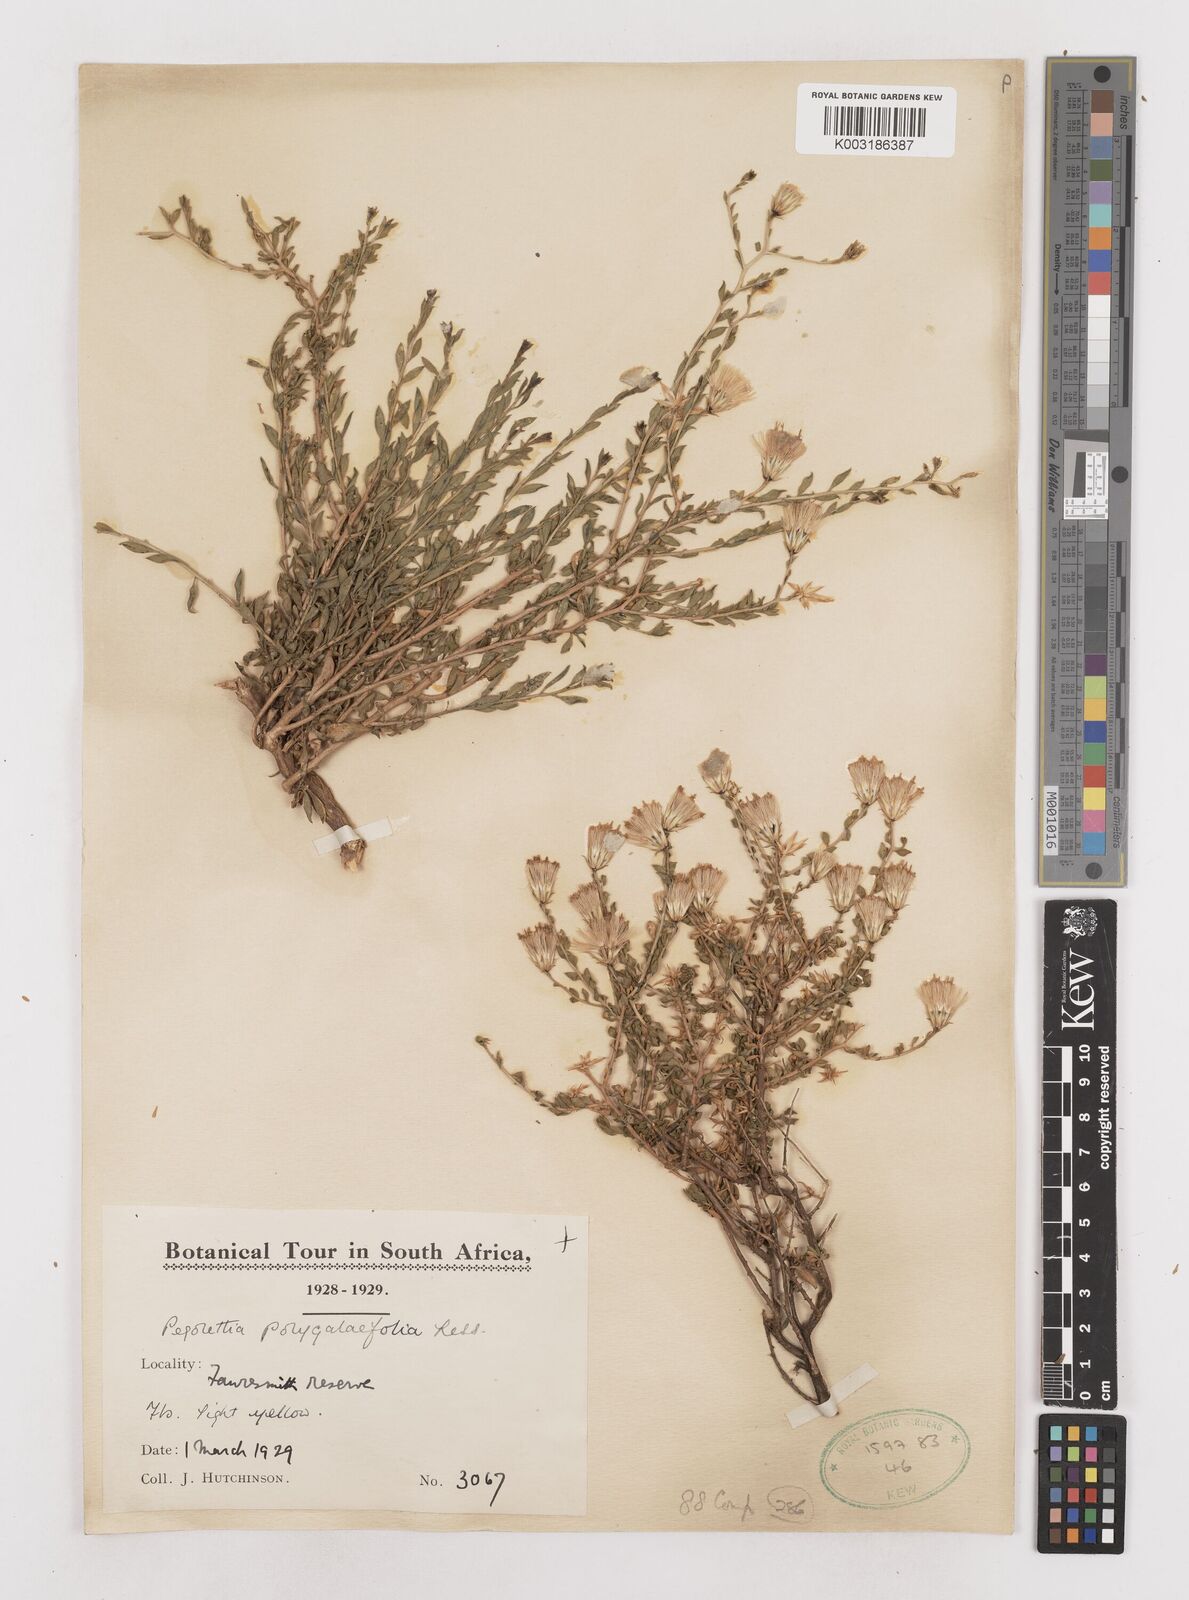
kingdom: Plantae
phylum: Tracheophyta
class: Magnoliopsida
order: Asterales
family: Asteraceae
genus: Pegolettia
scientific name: Pegolettia retrofracta
